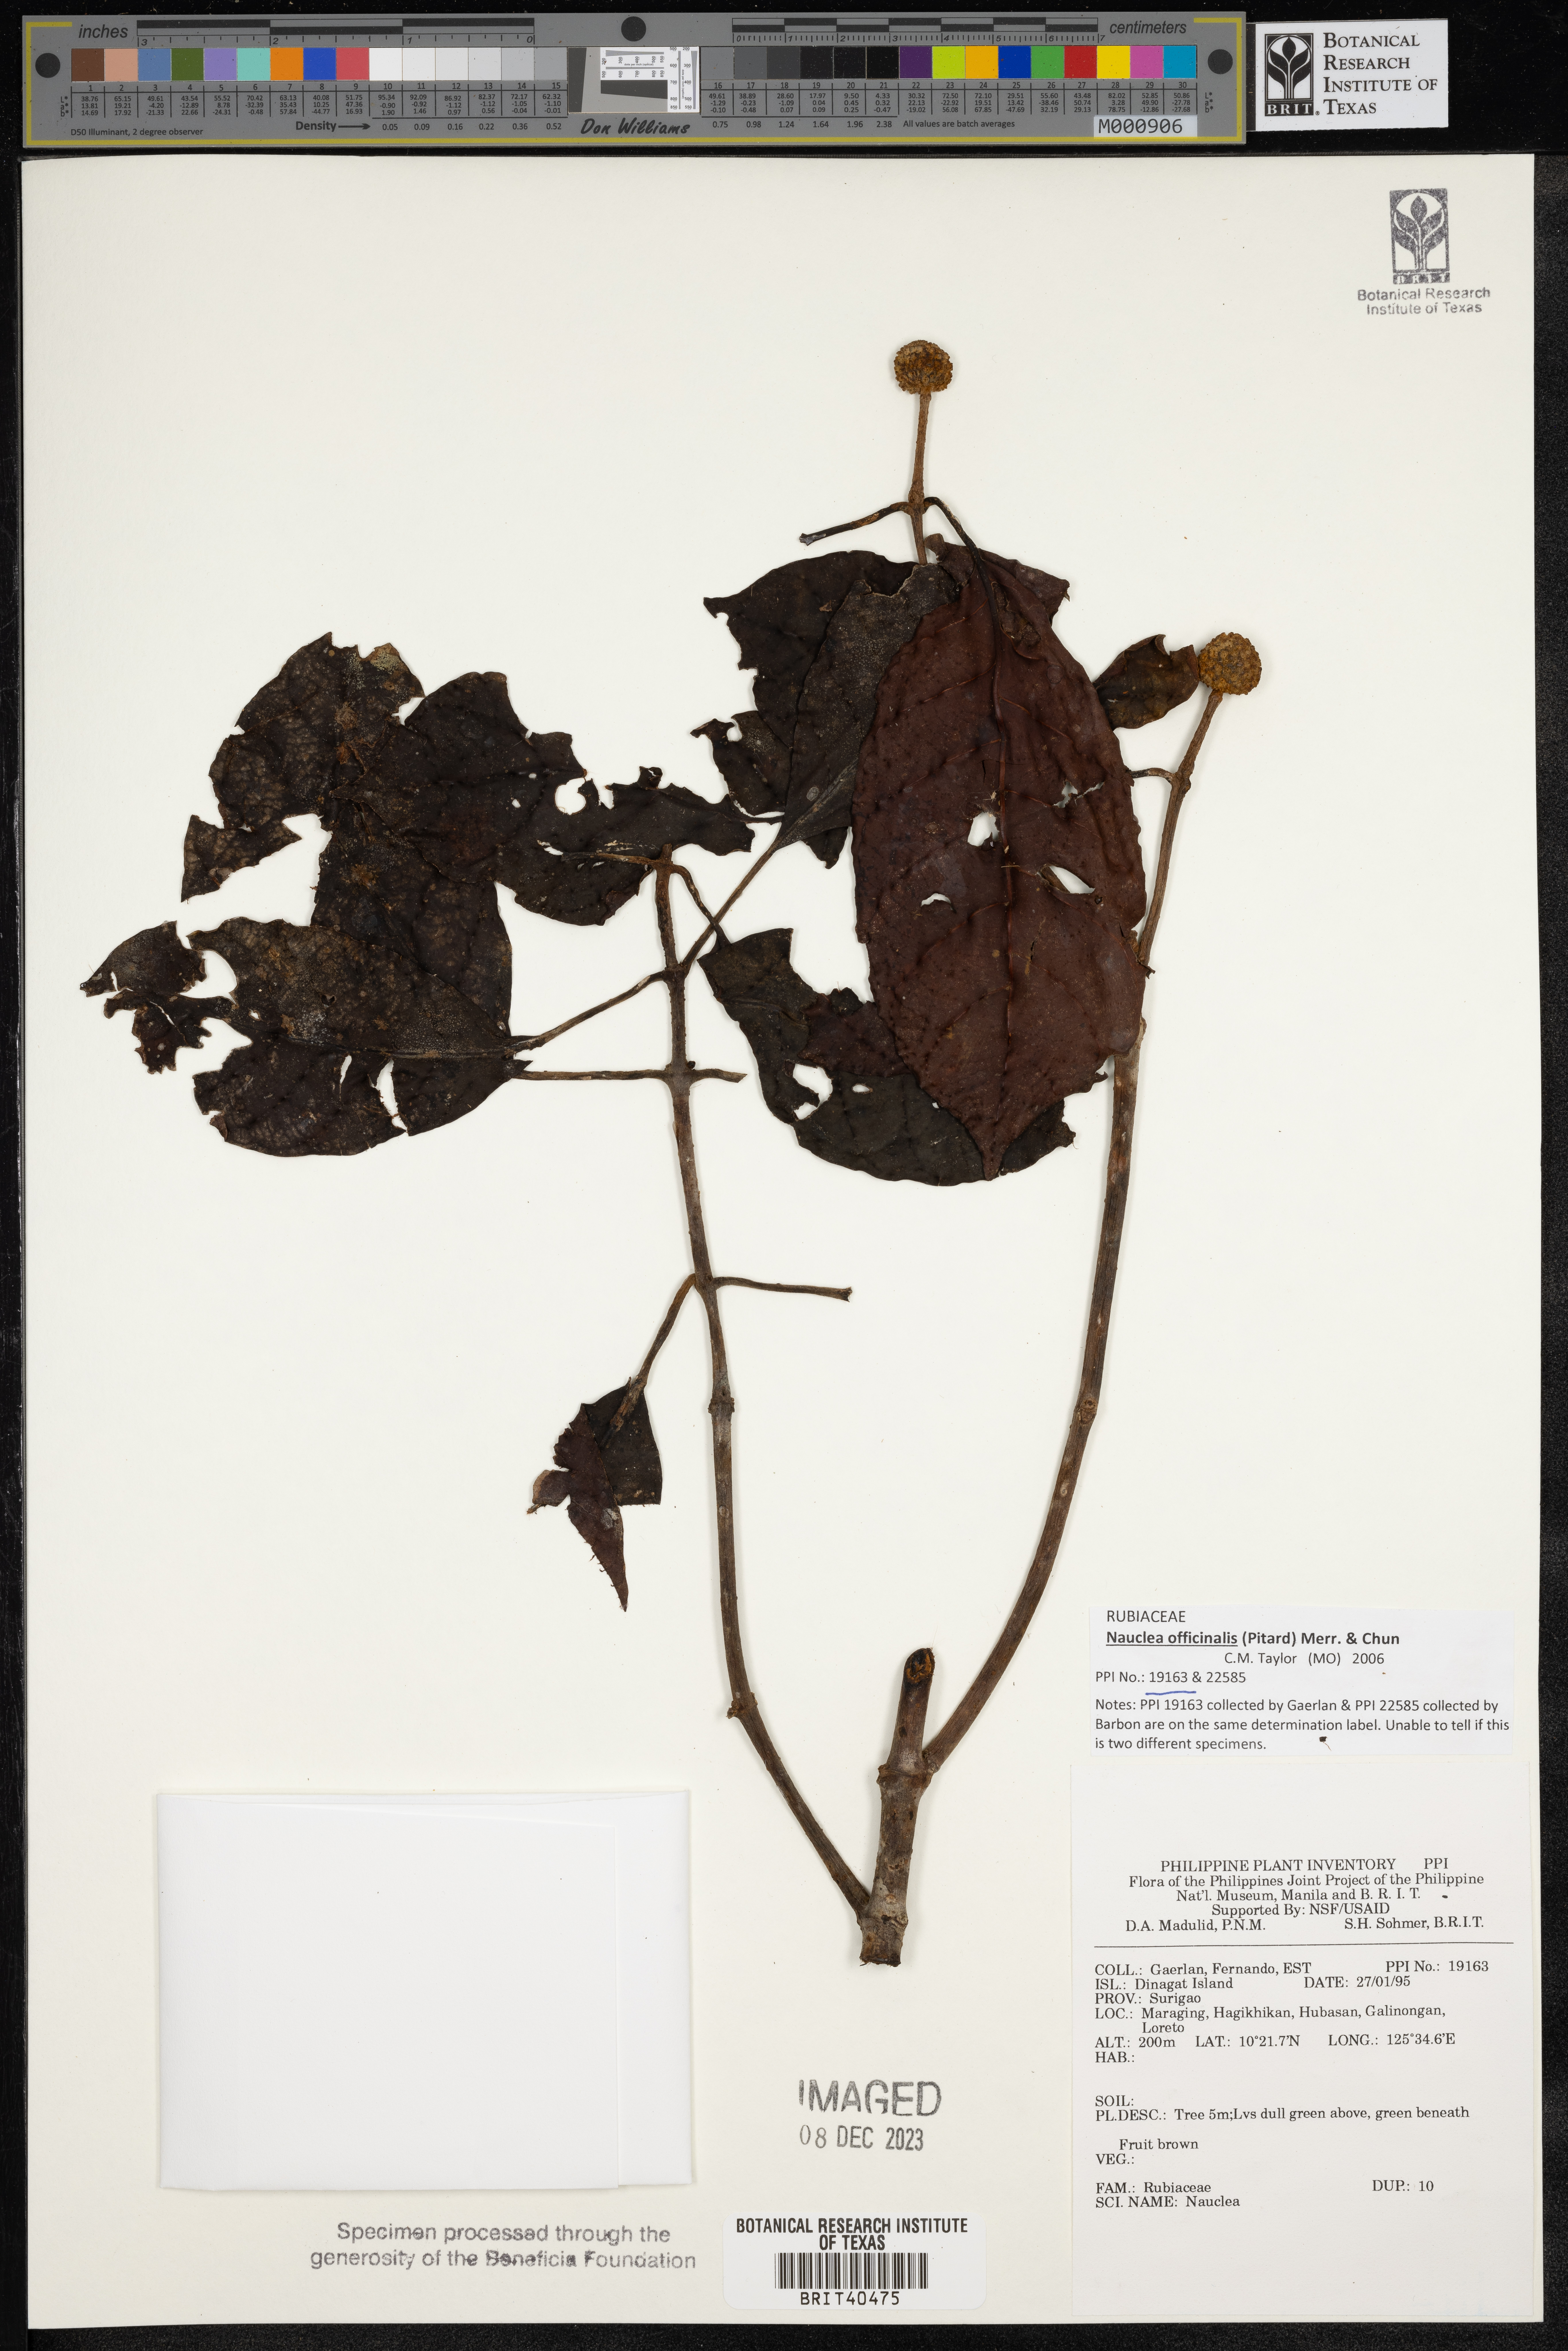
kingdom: Plantae
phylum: Tracheophyta
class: Magnoliopsida
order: Gentianales
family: Rubiaceae
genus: Nauclea
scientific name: Nauclea
